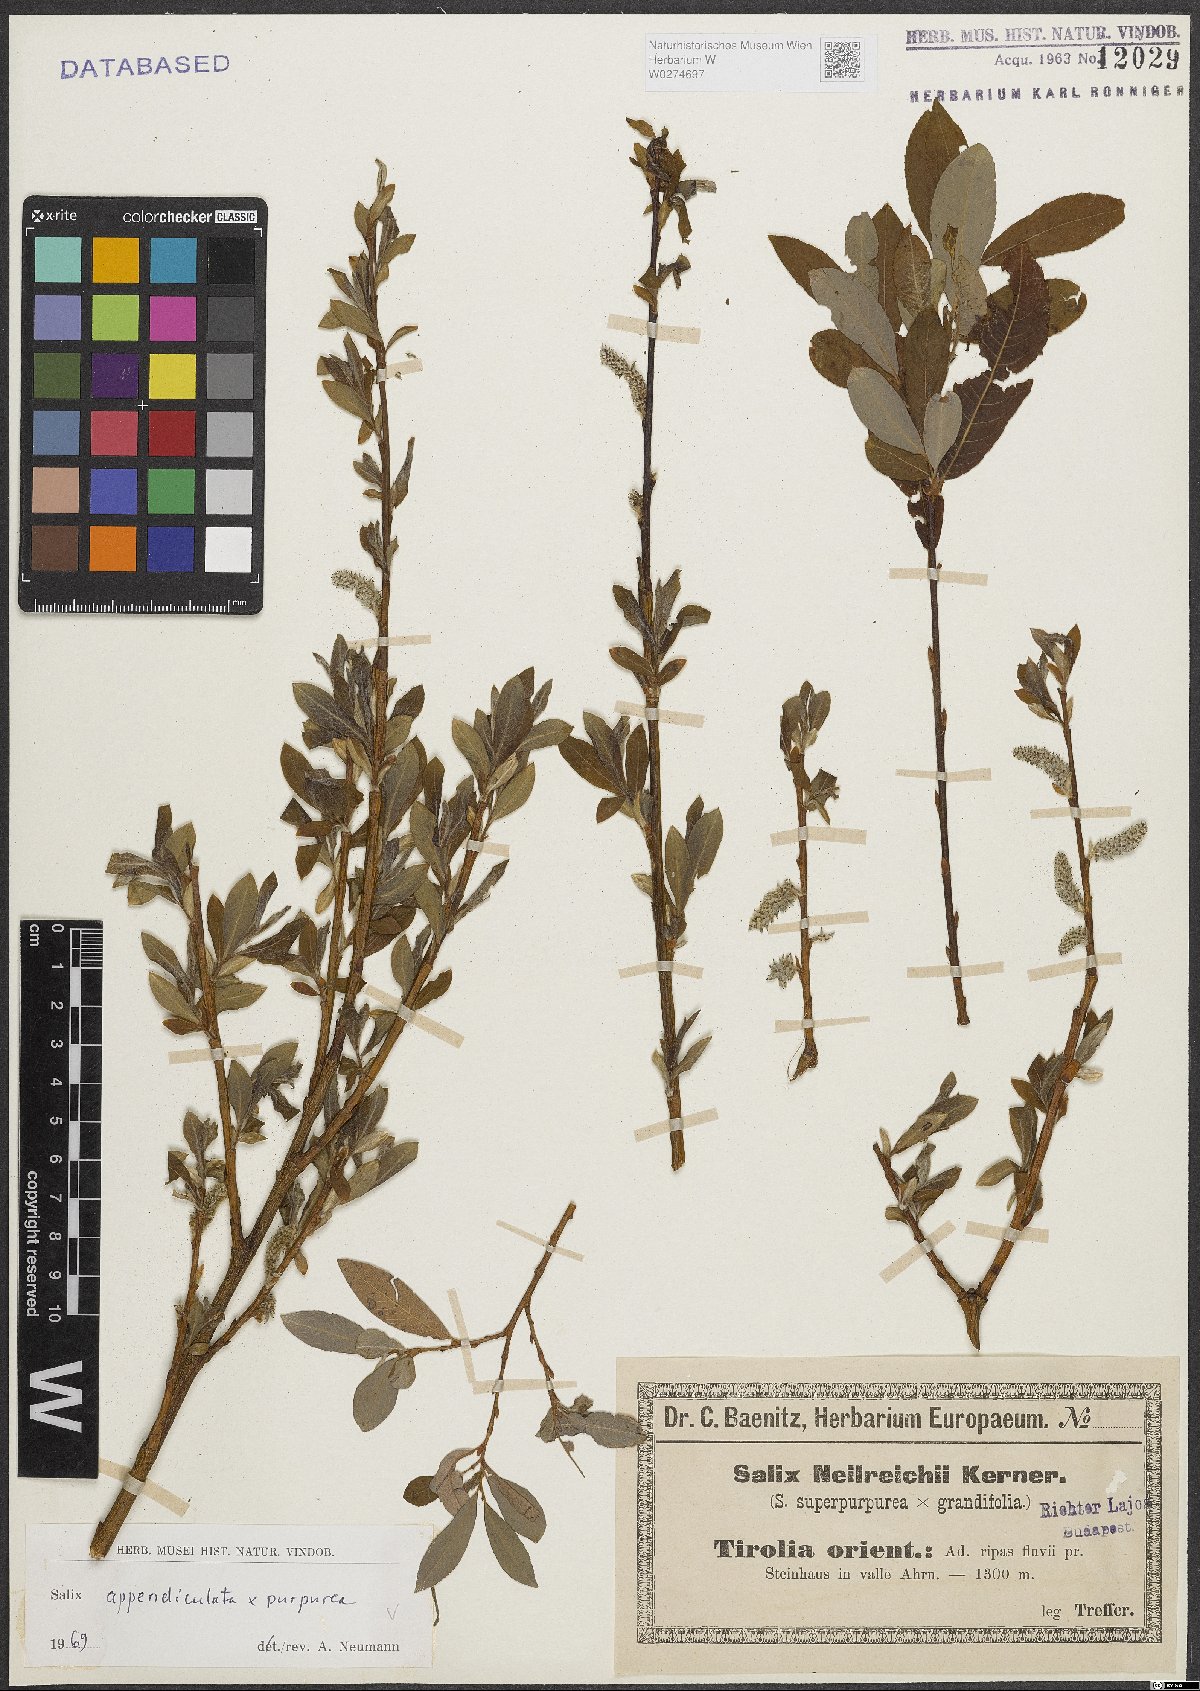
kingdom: Plantae
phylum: Tracheophyta
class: Magnoliopsida
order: Malpighiales
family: Salicaceae
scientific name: Salicaceae
